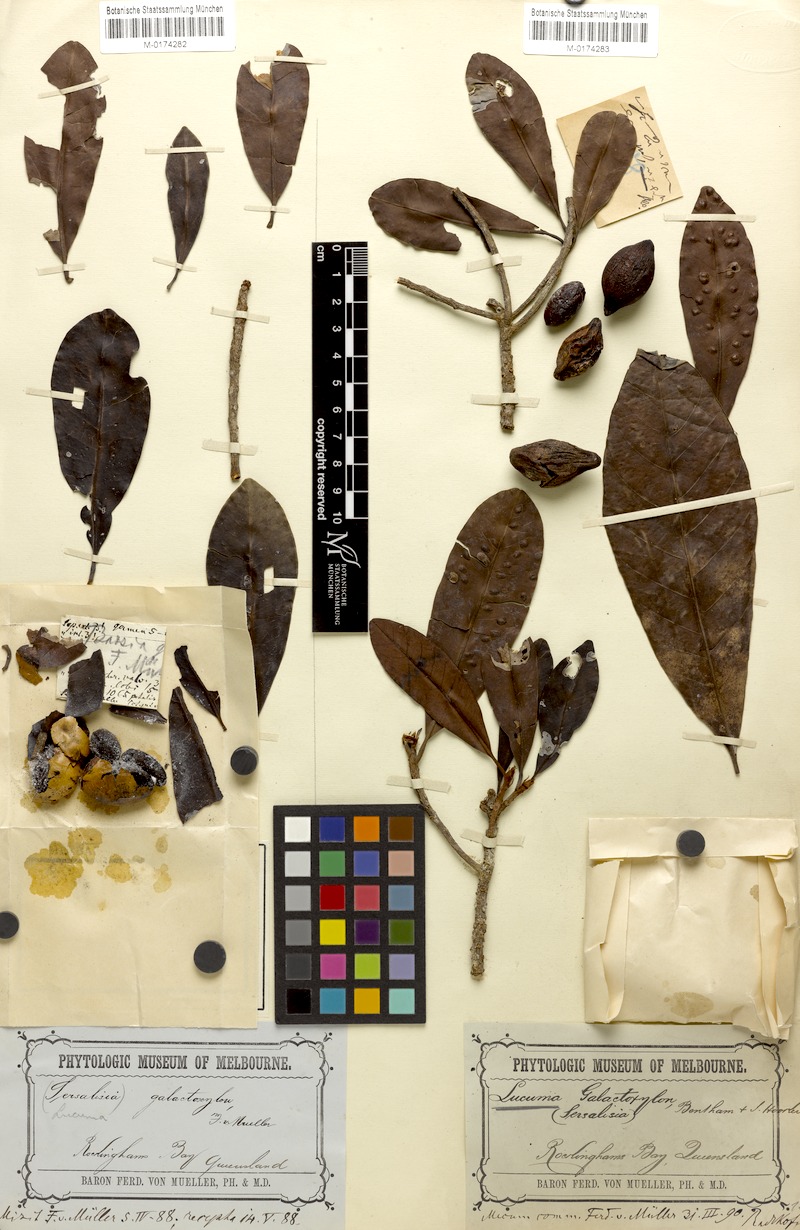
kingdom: Plantae
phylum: Tracheophyta
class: Magnoliopsida
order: Ericales
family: Sapotaceae
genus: Palaquium
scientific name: Palaquium galactoxylum
